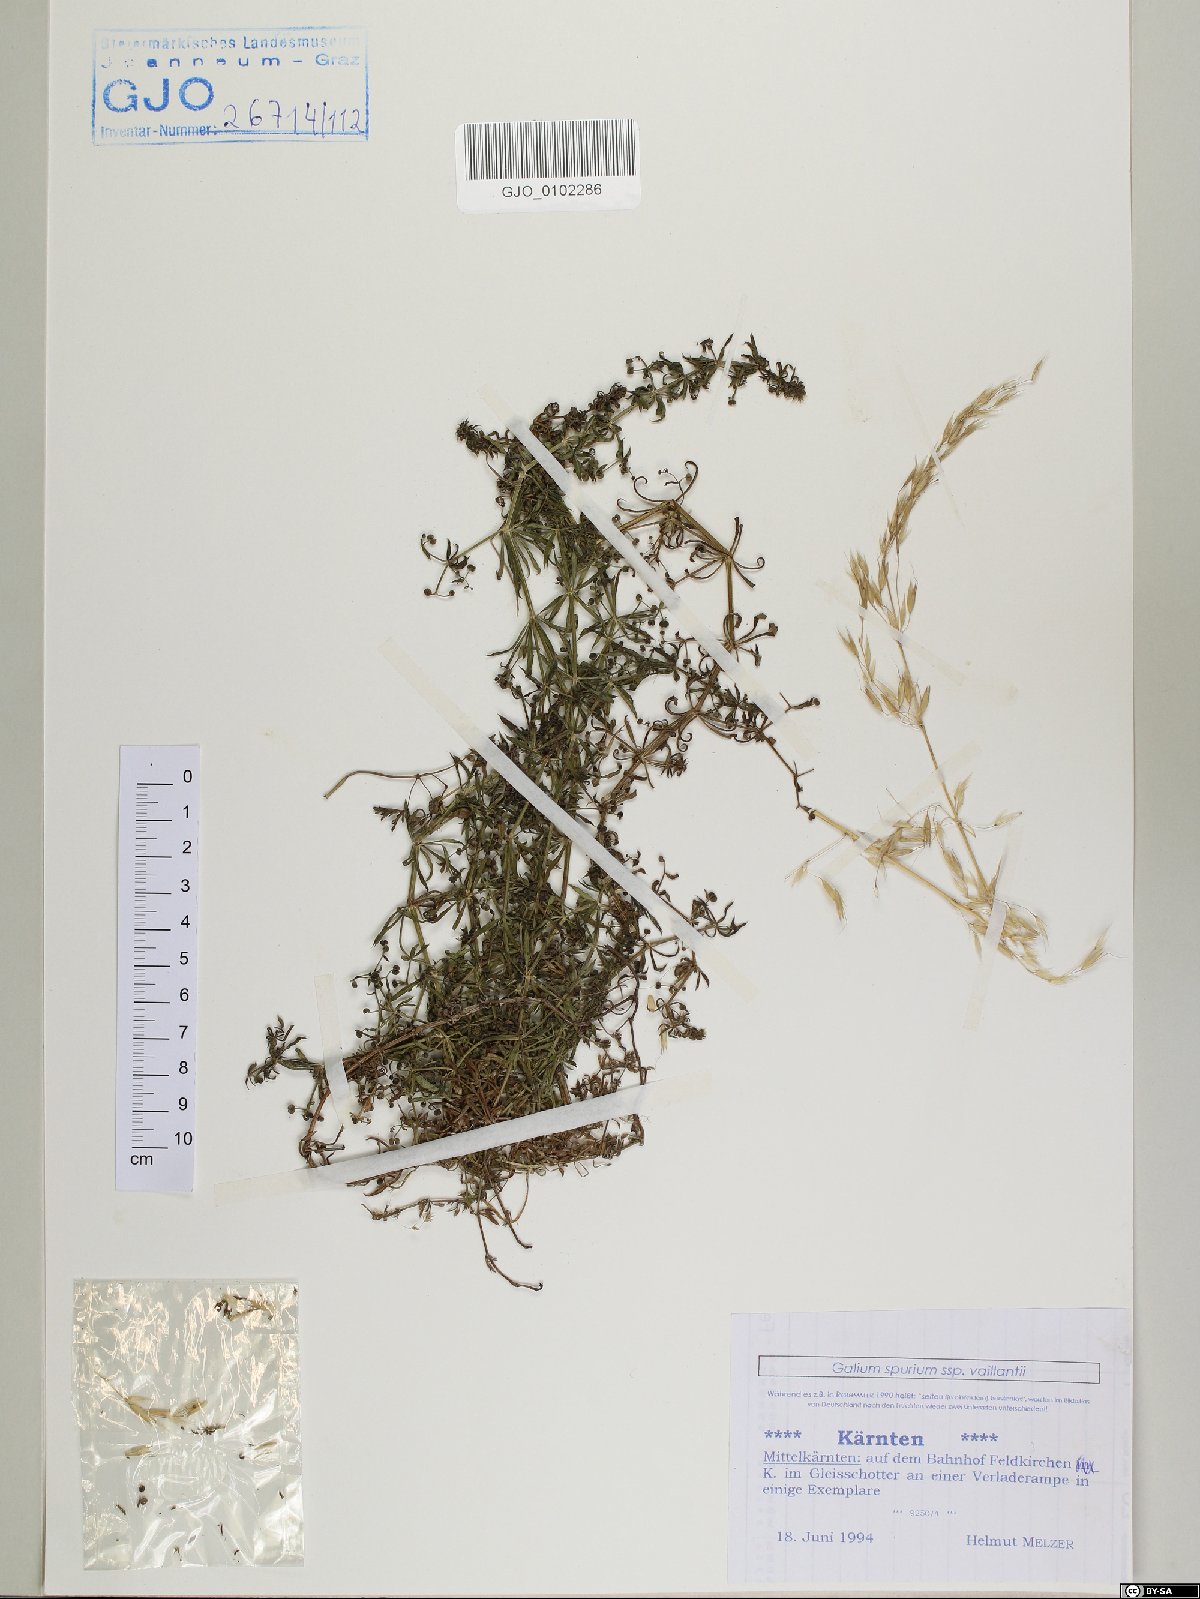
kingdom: Plantae
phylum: Tracheophyta
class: Magnoliopsida
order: Gentianales
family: Rubiaceae
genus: Galium
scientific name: Galium spurium
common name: False cleavers
